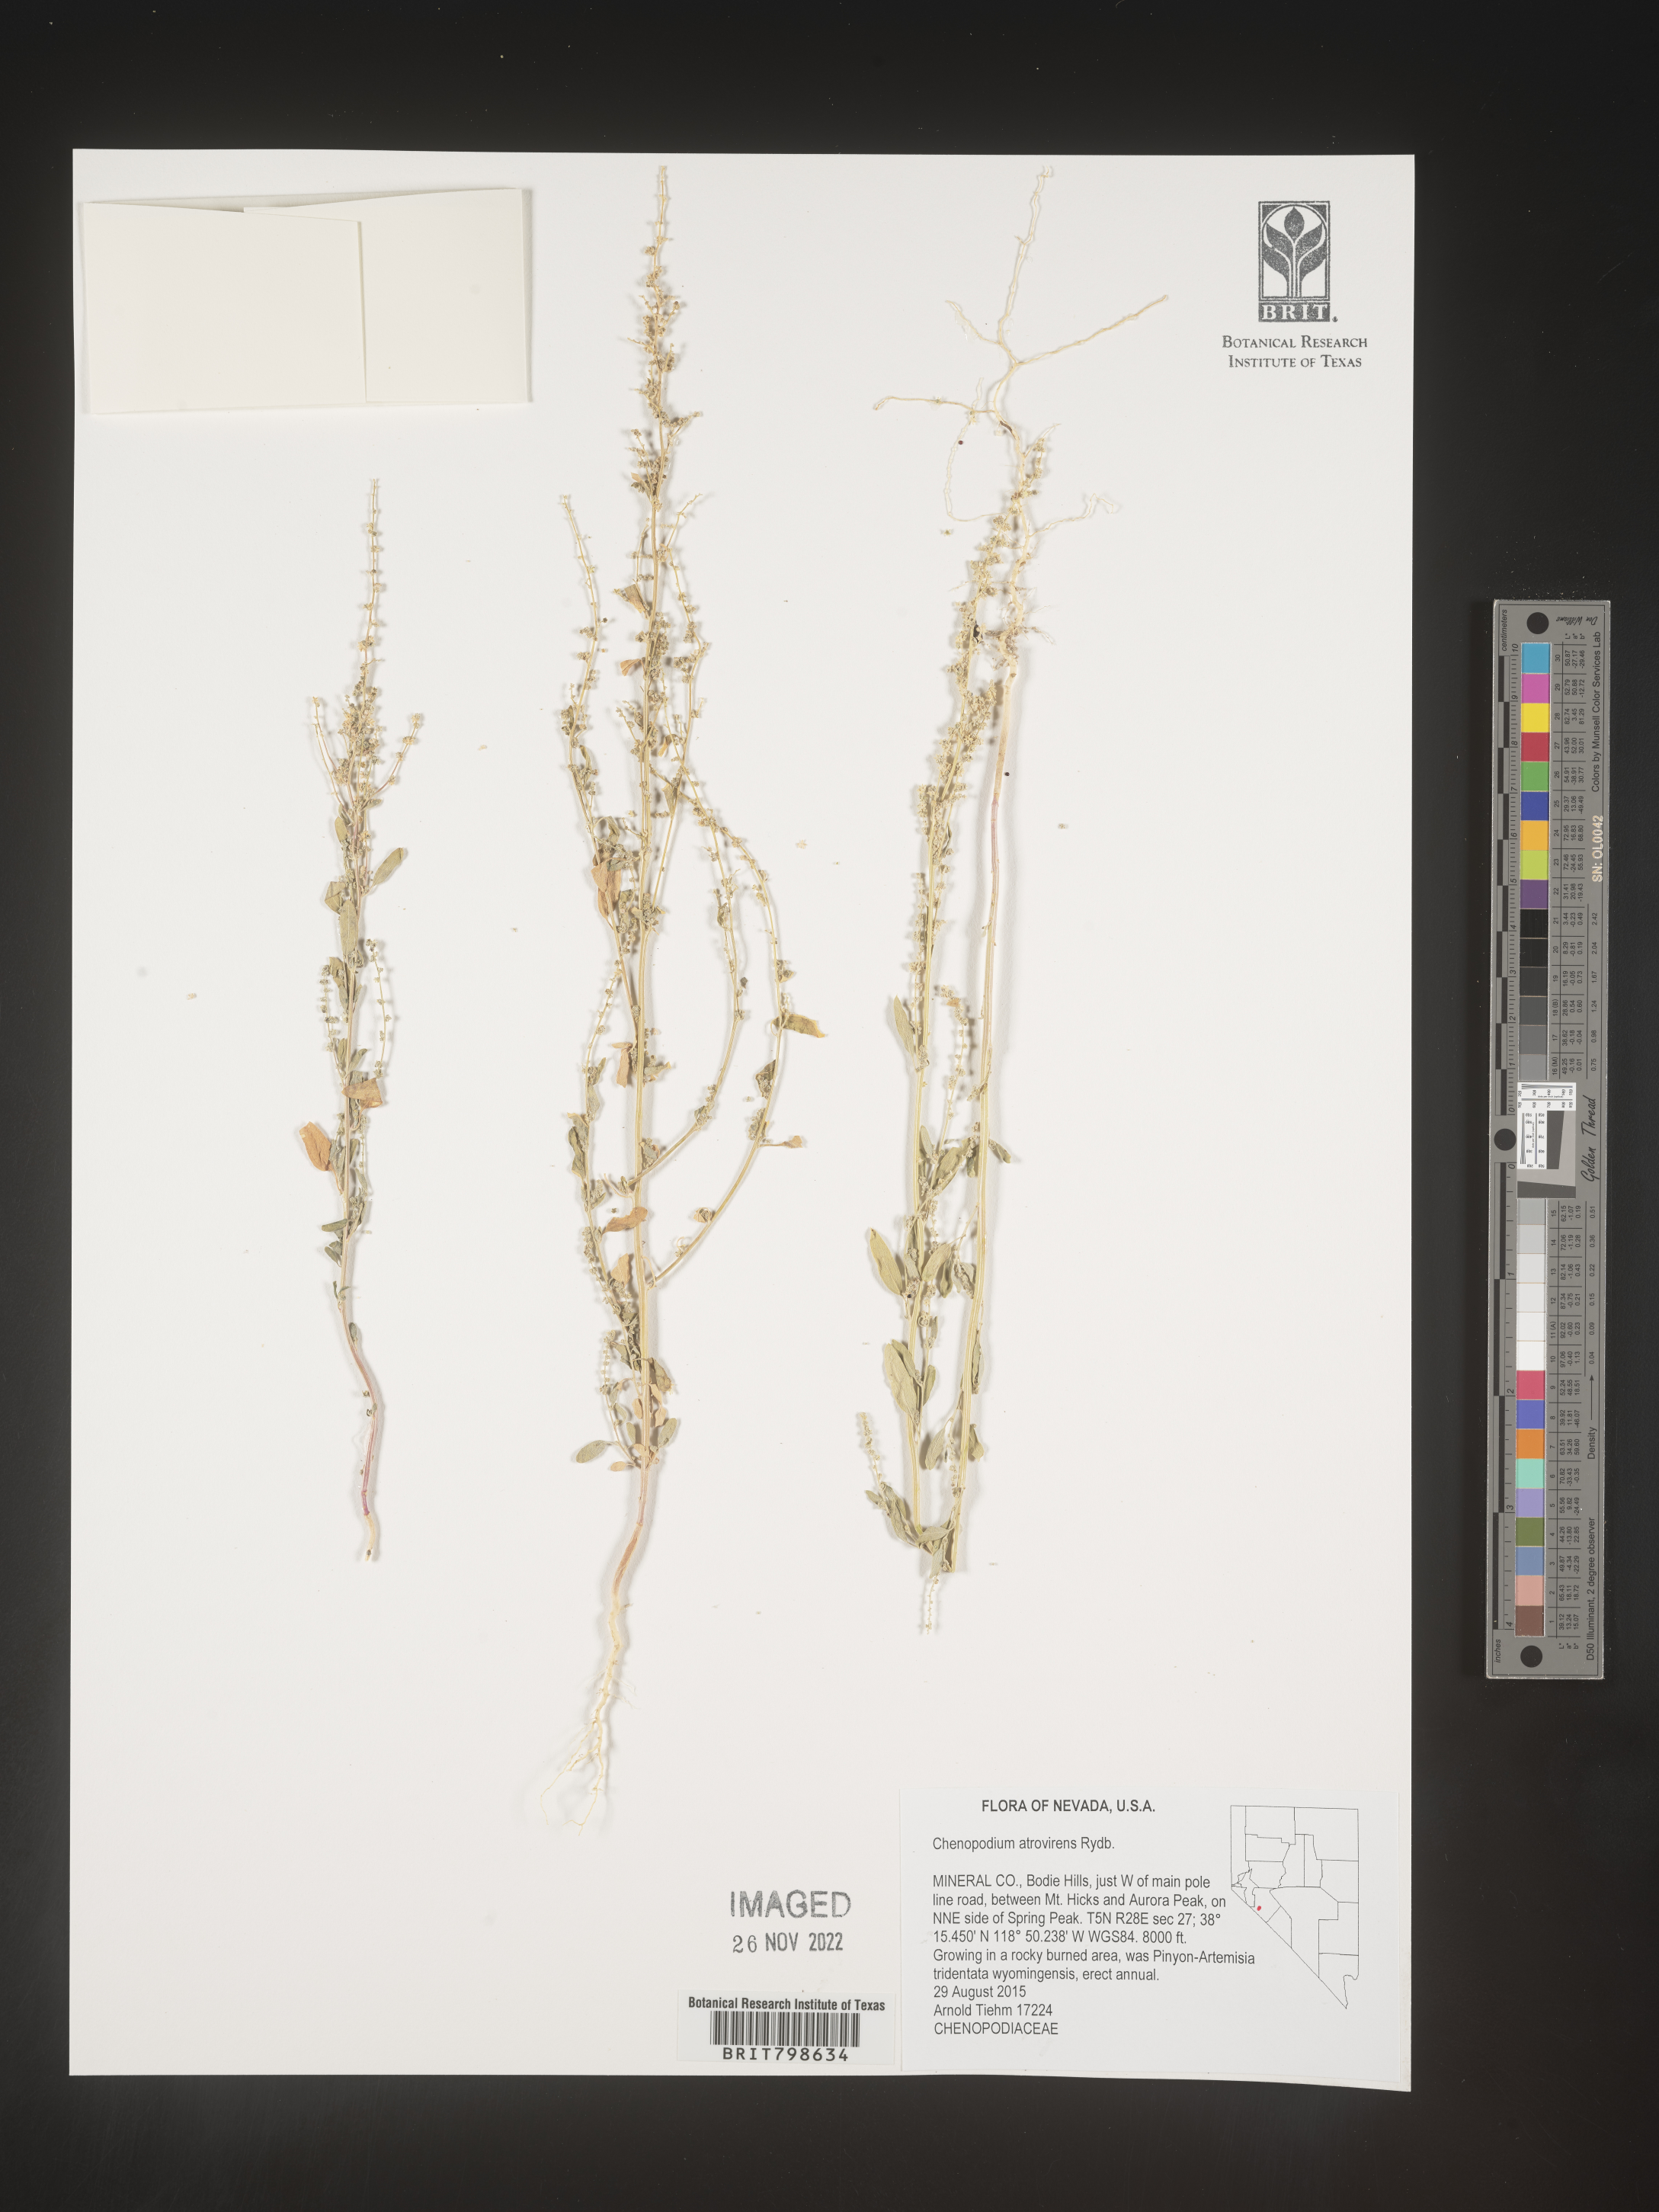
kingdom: Plantae
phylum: Tracheophyta
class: Magnoliopsida
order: Caryophyllales
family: Amaranthaceae
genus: Chenopodium
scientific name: Chenopodium atrovirens
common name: Dark goosefoot
